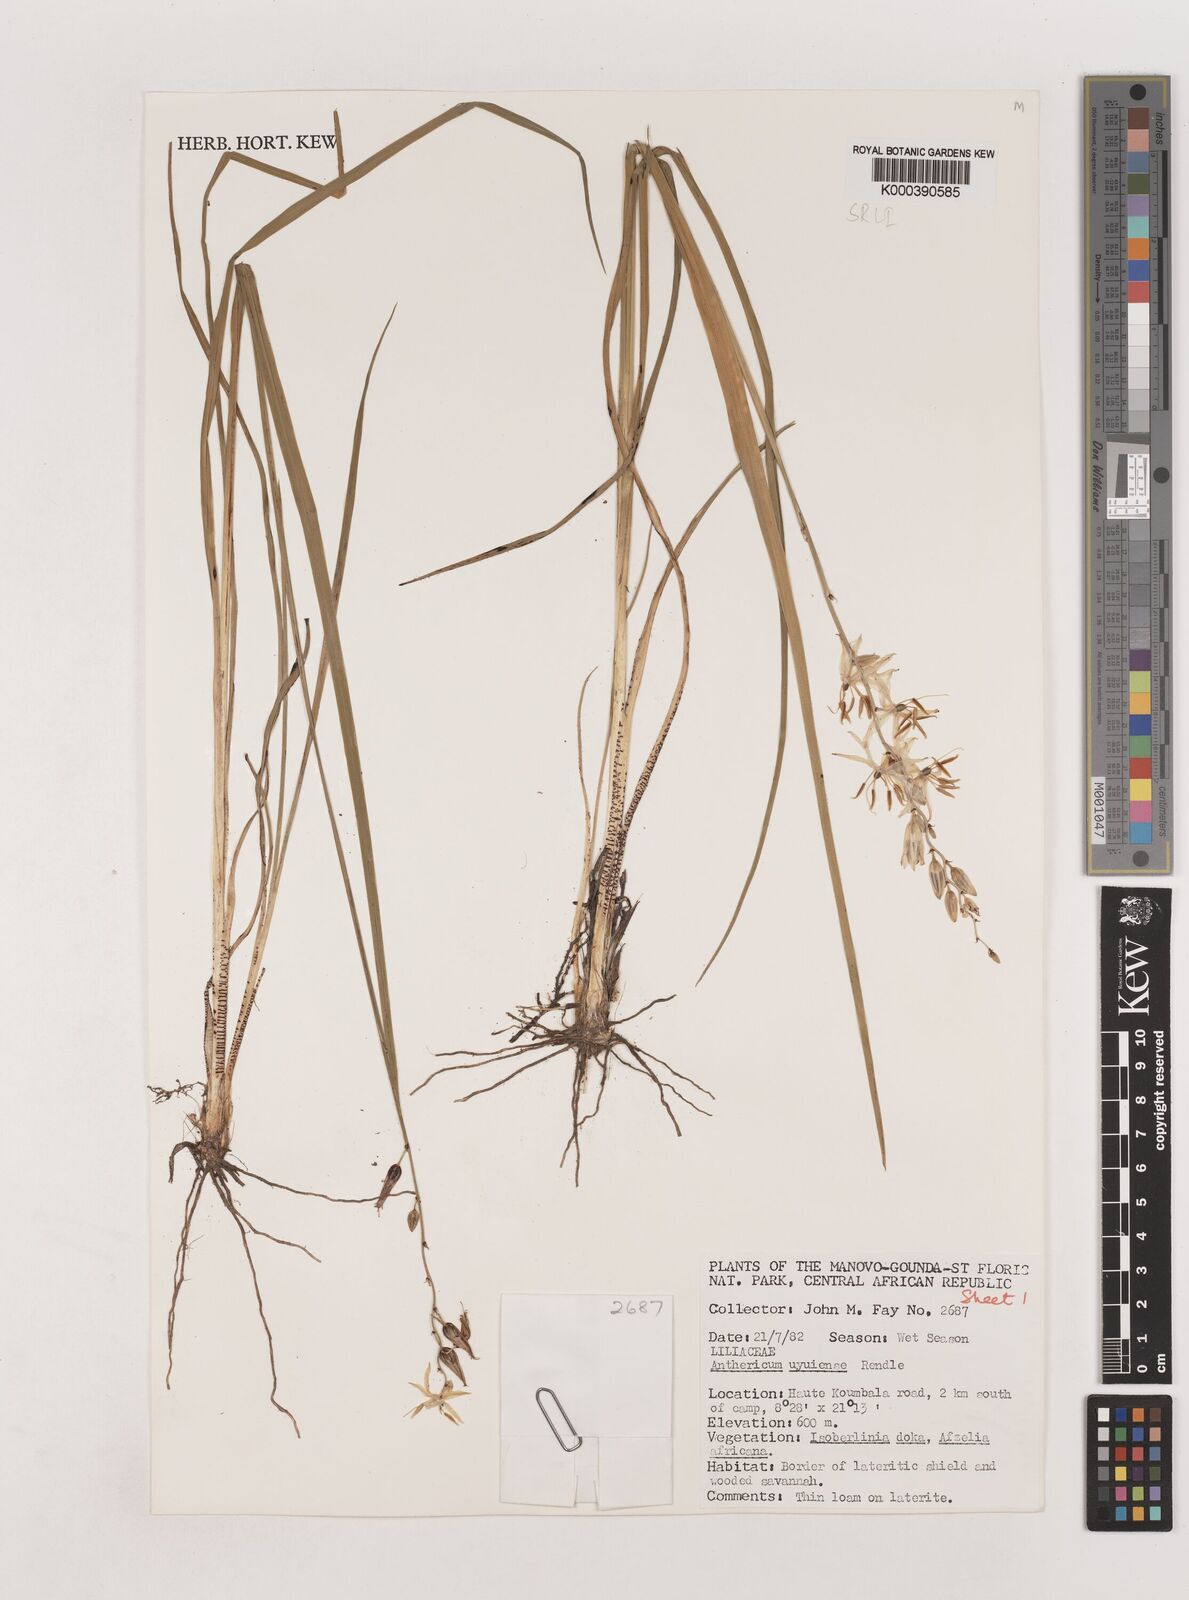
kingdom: Plantae
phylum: Tracheophyta
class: Liliopsida
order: Asparagales
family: Asparagaceae
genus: Chlorophytum
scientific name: Chlorophytum cameronii
